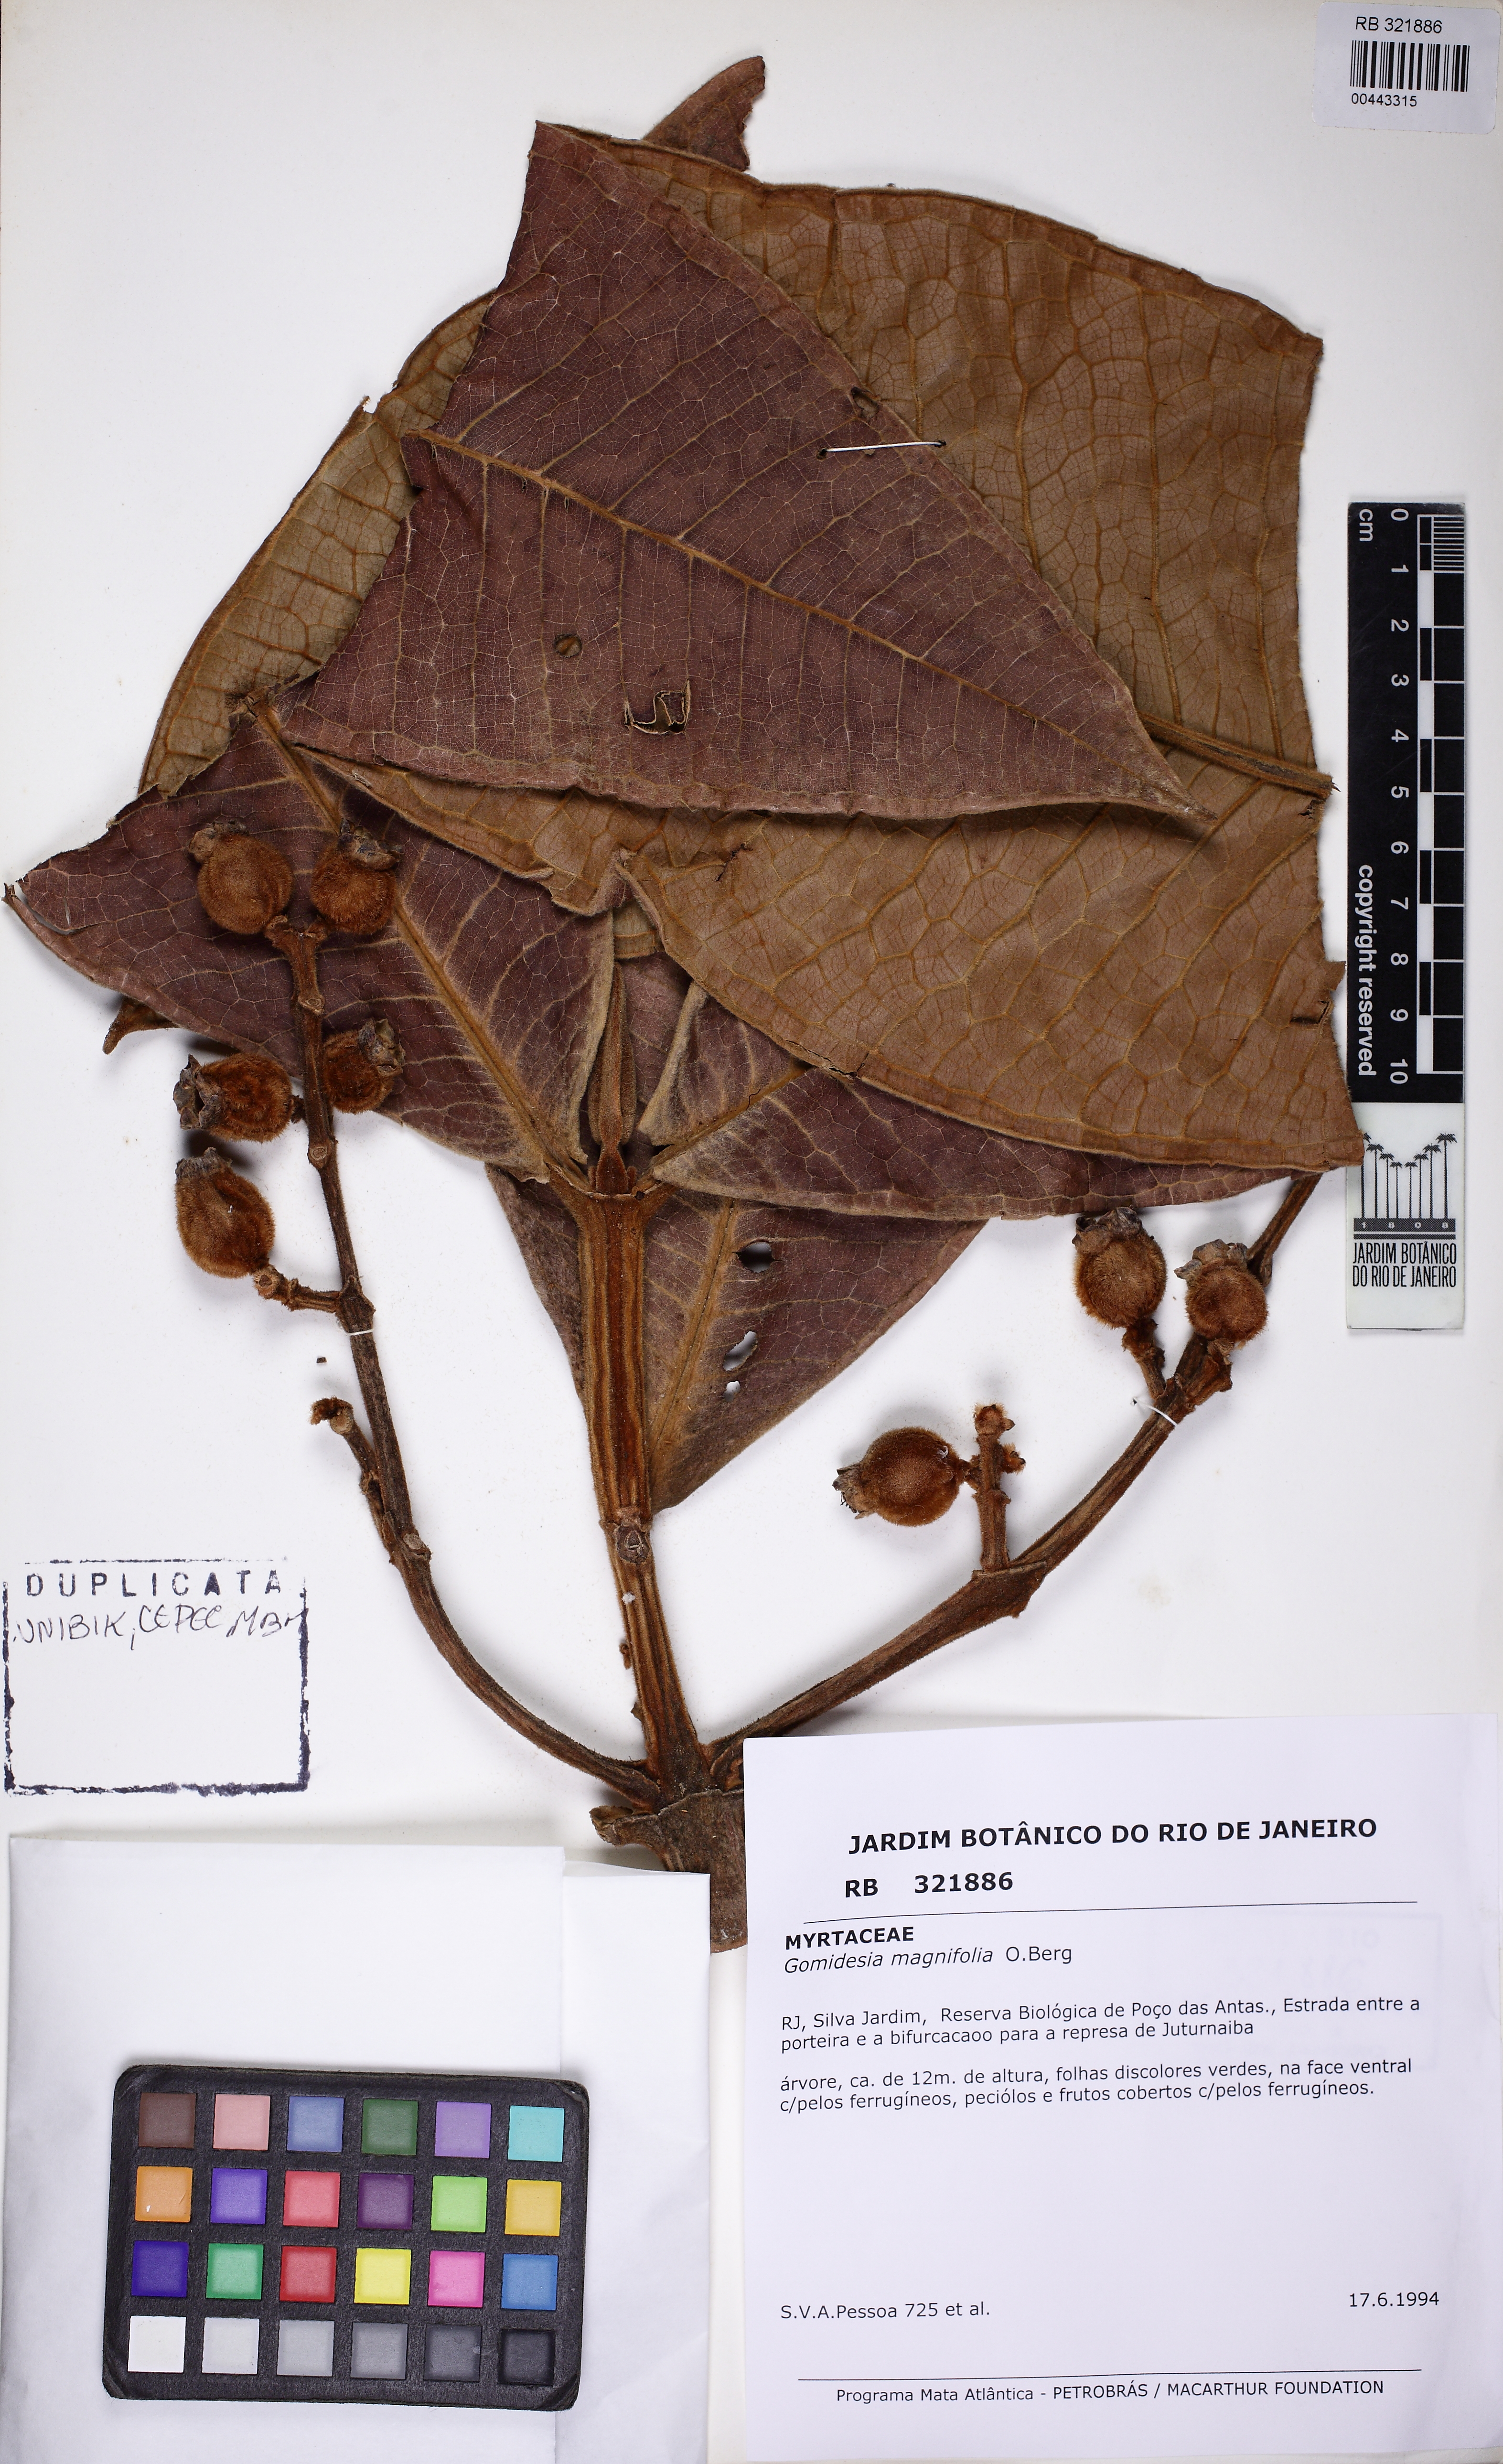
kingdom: Plantae
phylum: Tracheophyta
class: Magnoliopsida
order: Myrtales
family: Myrtaceae
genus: Myrcia
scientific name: Myrcia magnifolia
